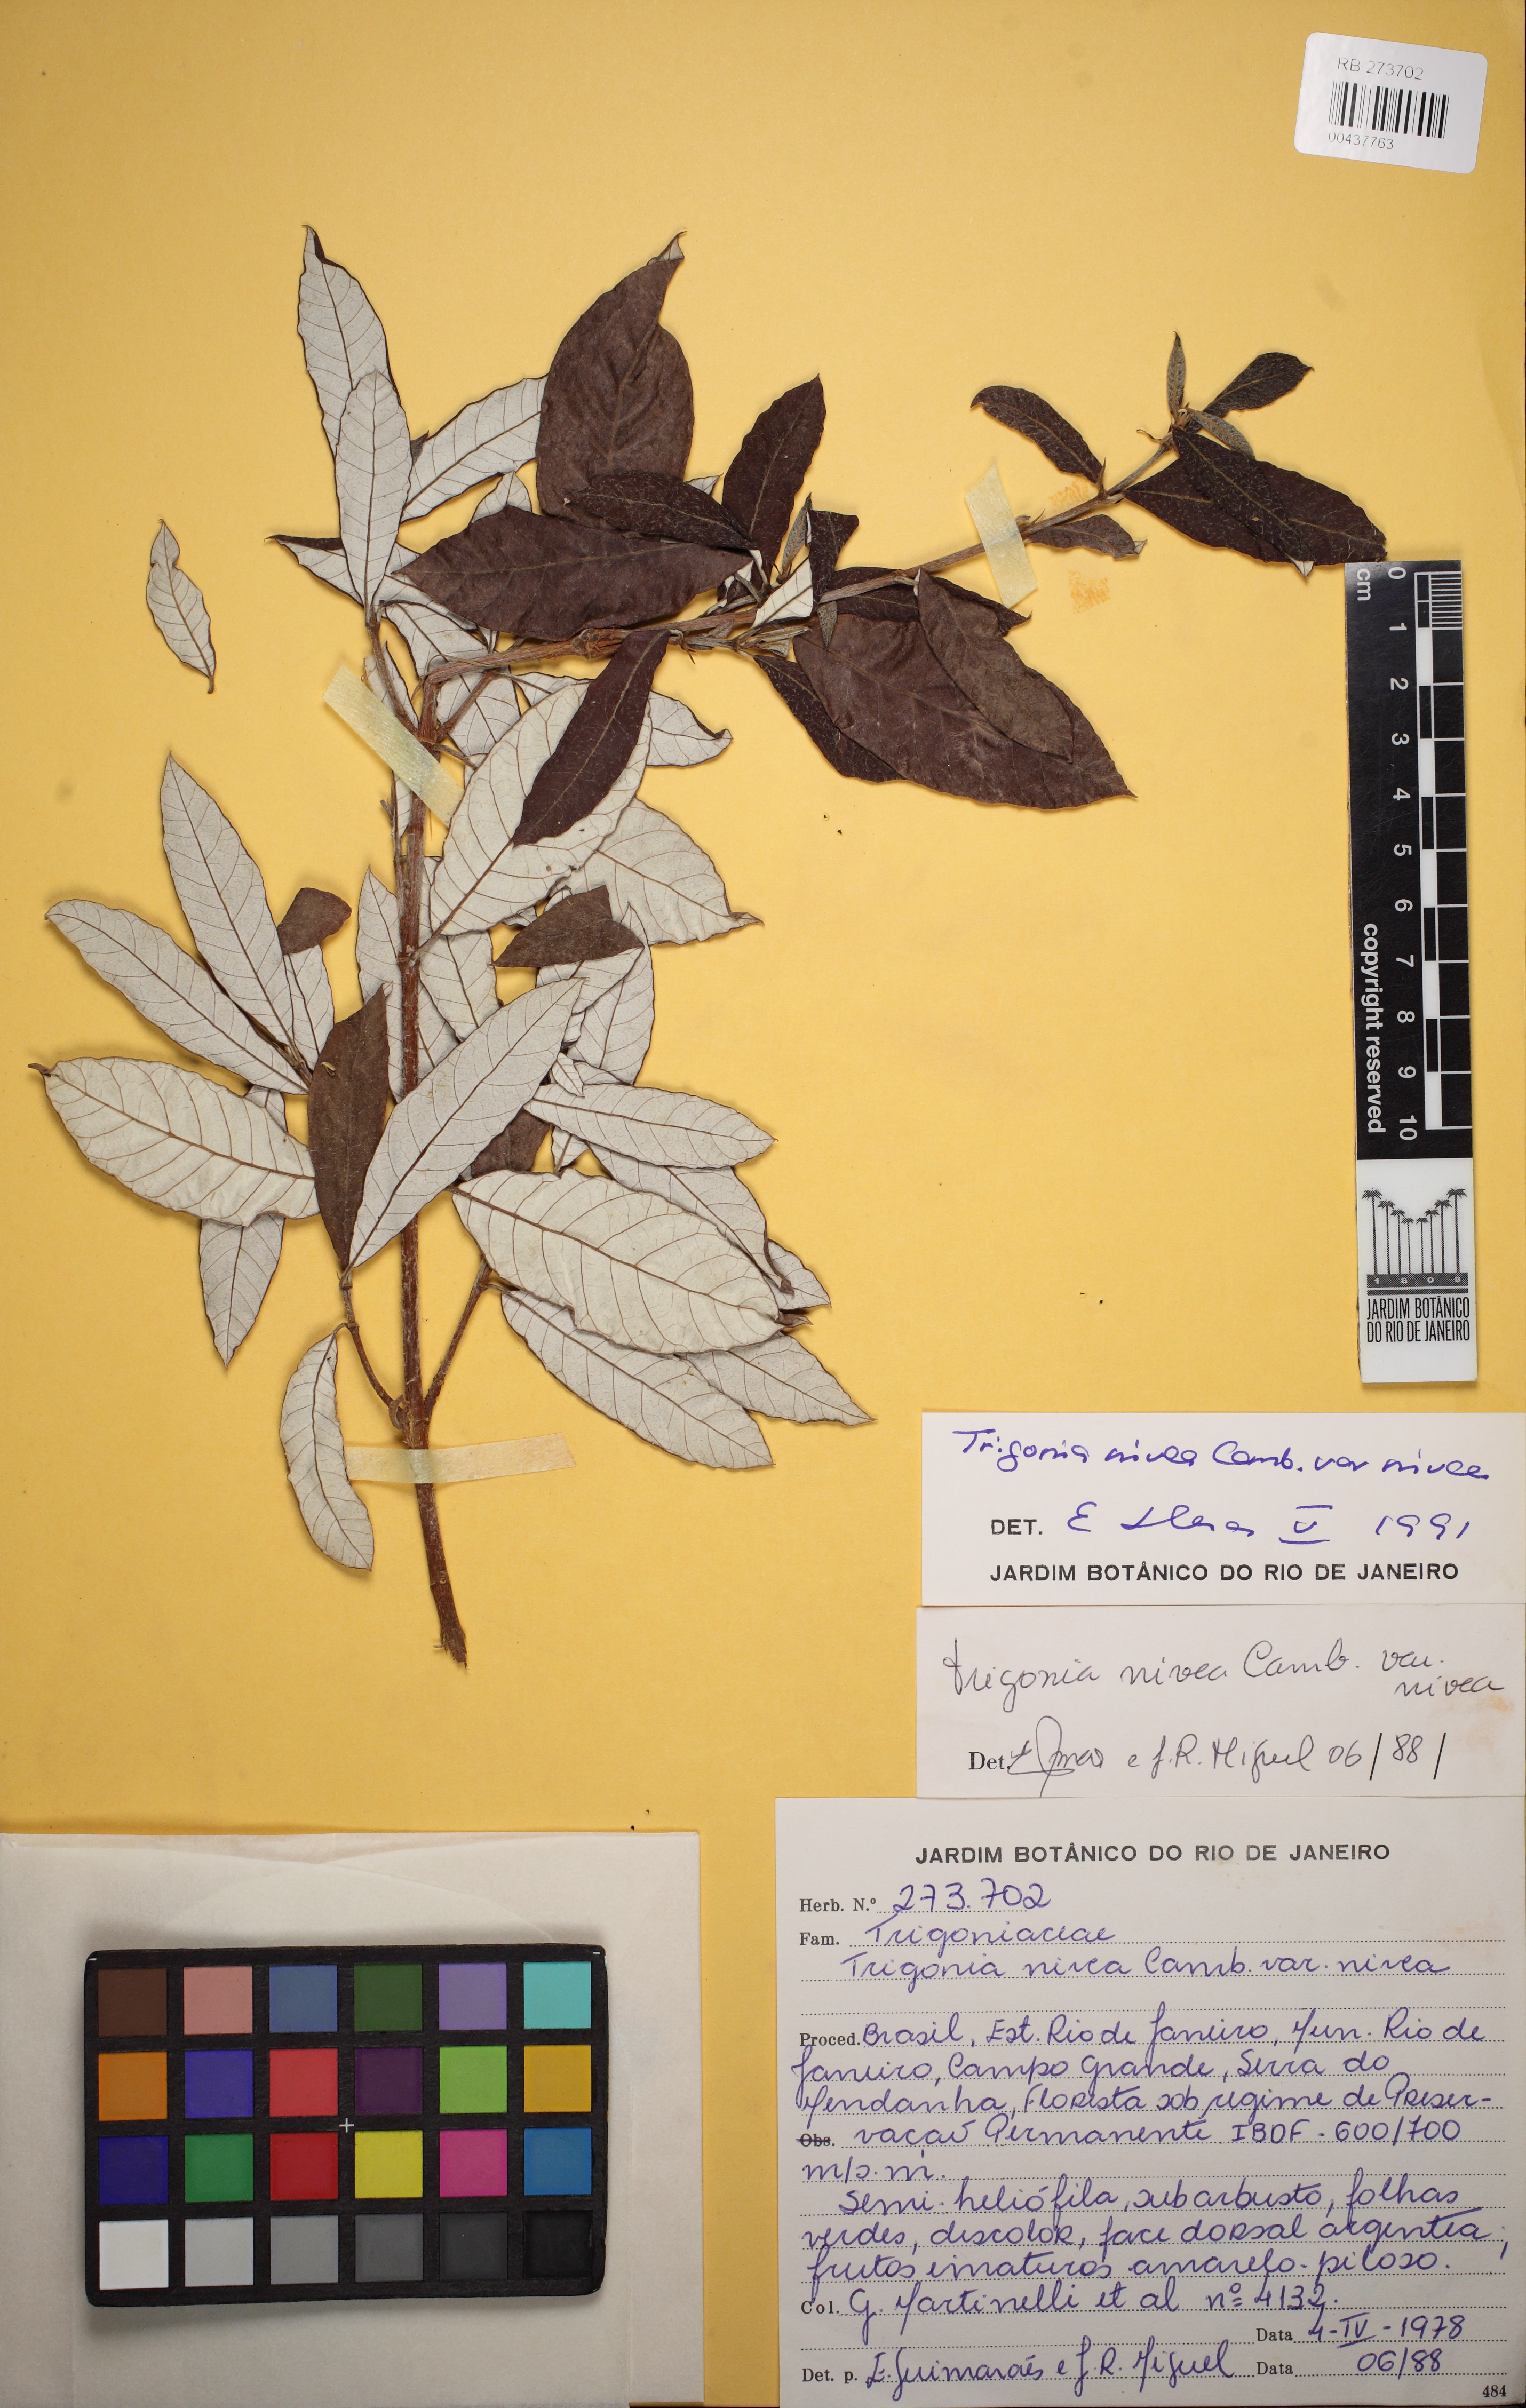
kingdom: Plantae
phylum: Tracheophyta
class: Magnoliopsida
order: Malpighiales
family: Trigoniaceae
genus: Trigonia
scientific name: Trigonia nivea
